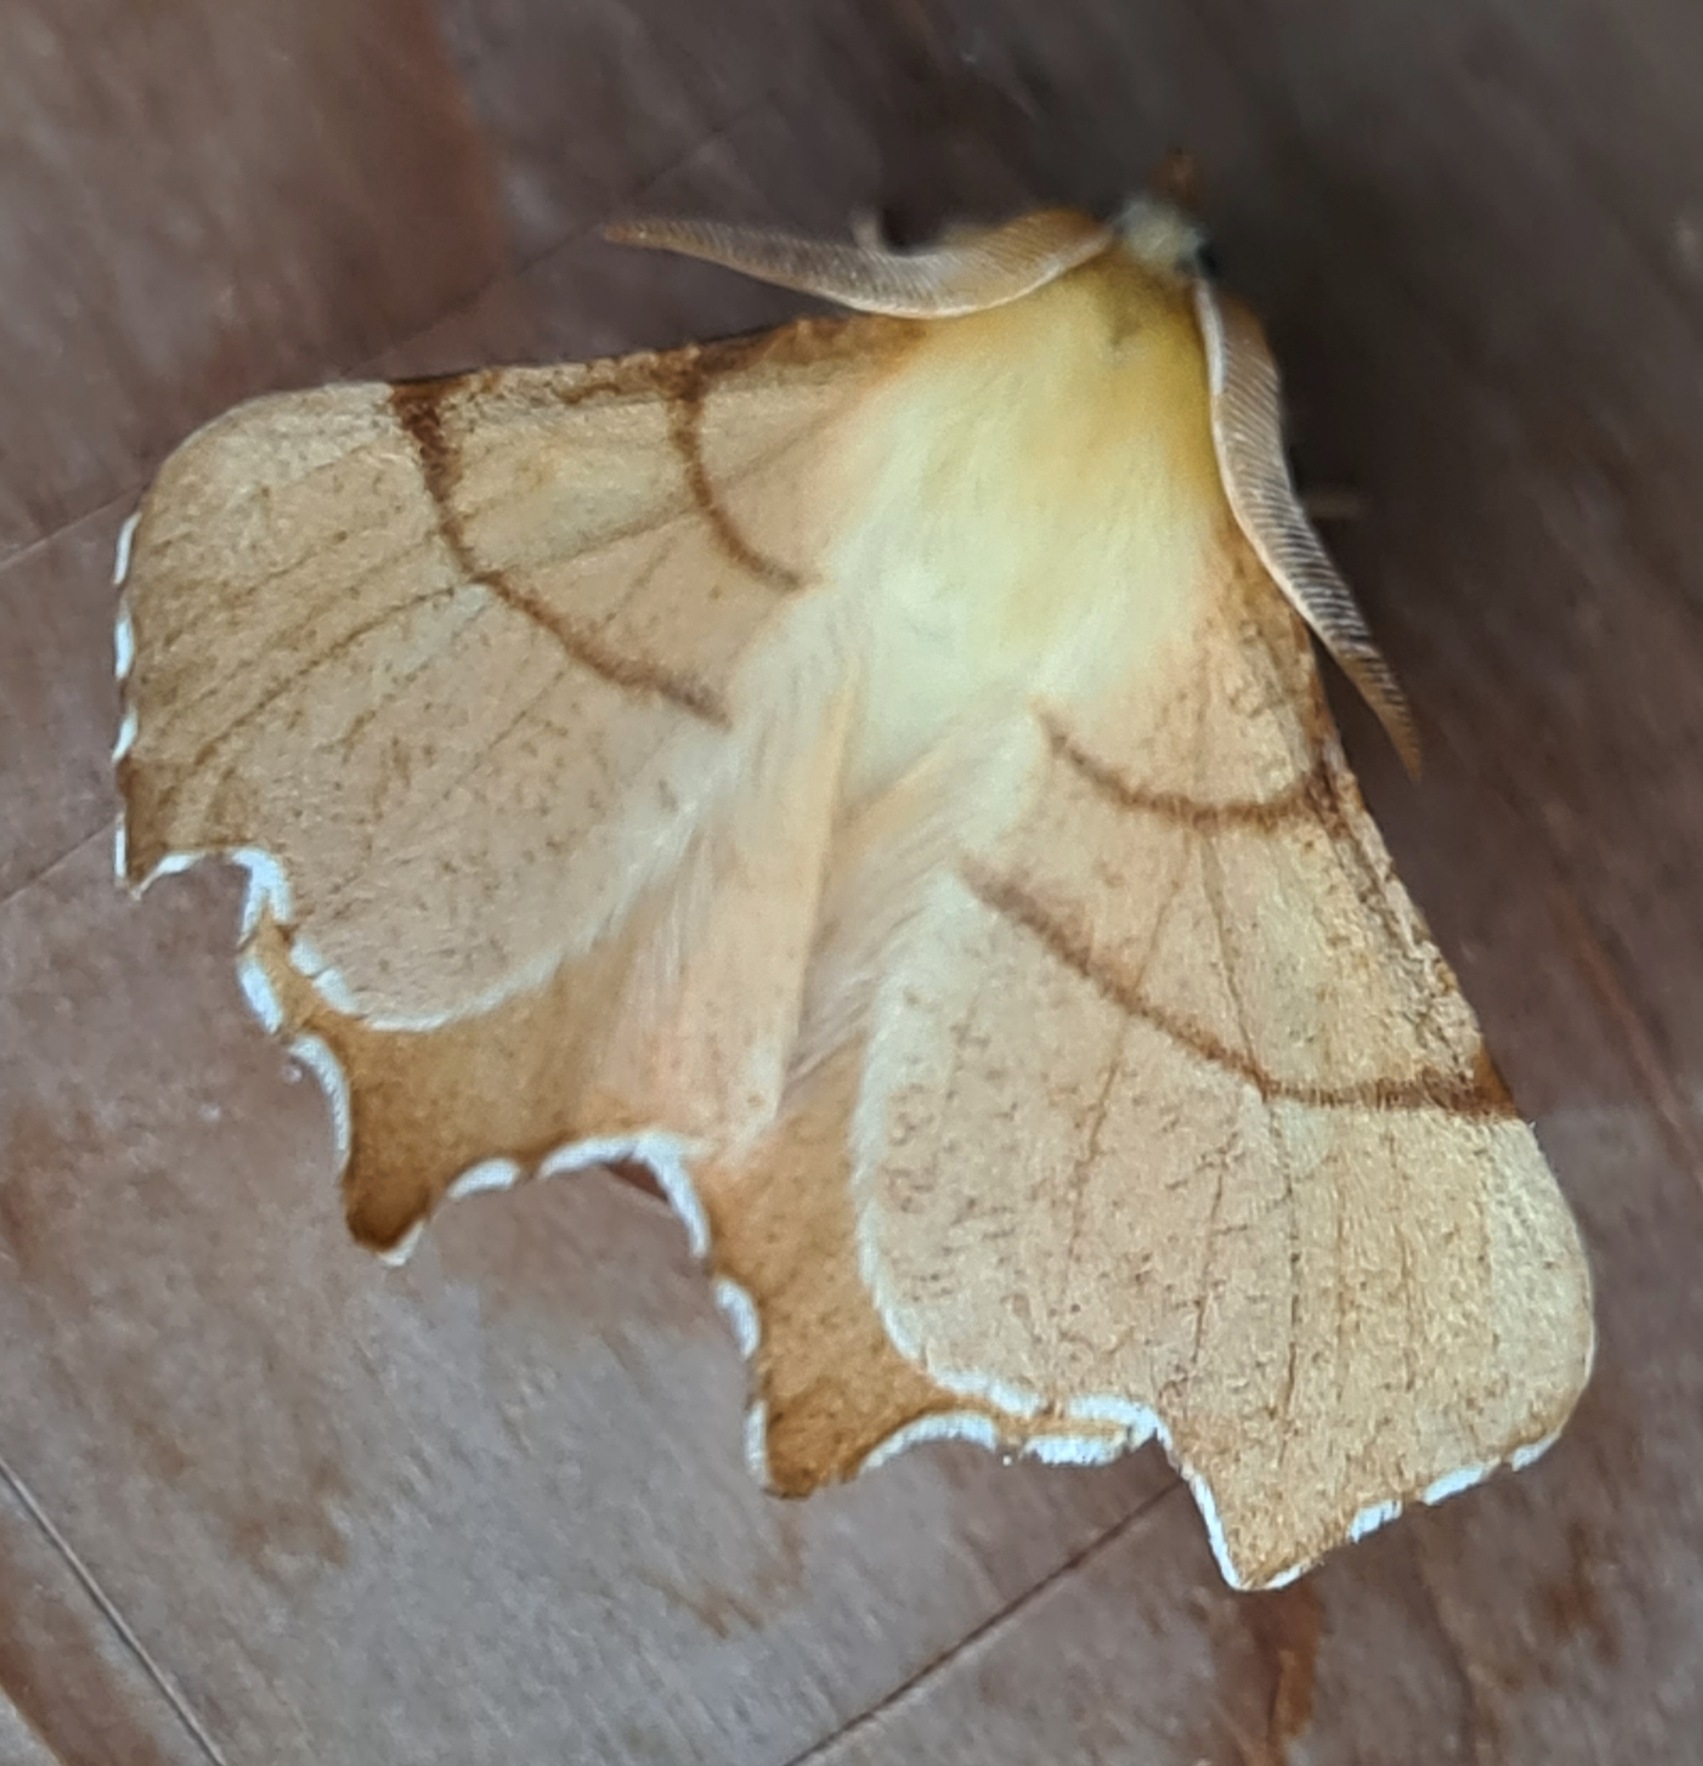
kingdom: Animalia
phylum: Arthropoda
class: Insecta
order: Lepidoptera
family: Geometridae
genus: Ennomos
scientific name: Ennomos erosaria
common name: Ege-tandmåler
